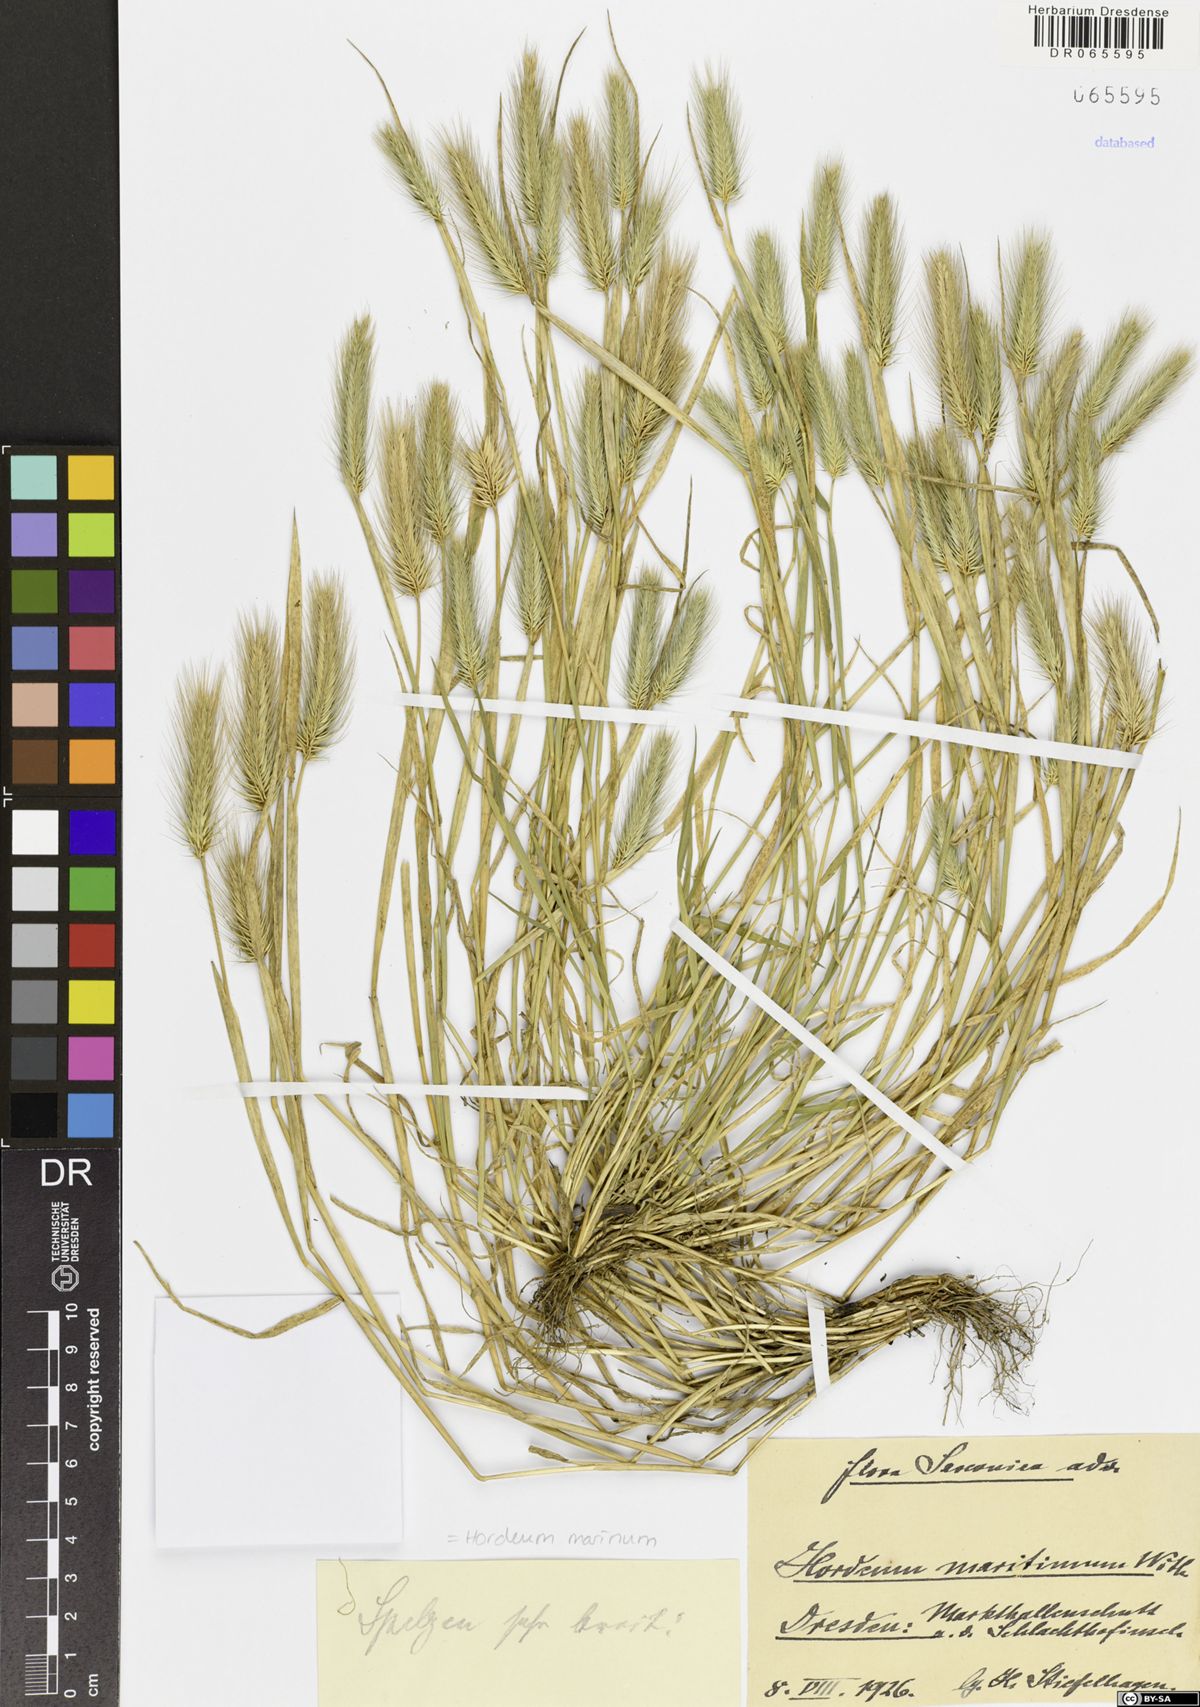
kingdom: Plantae
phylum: Tracheophyta
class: Liliopsida
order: Poales
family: Poaceae
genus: Hordeum
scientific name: Hordeum marinum
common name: Sea barley
